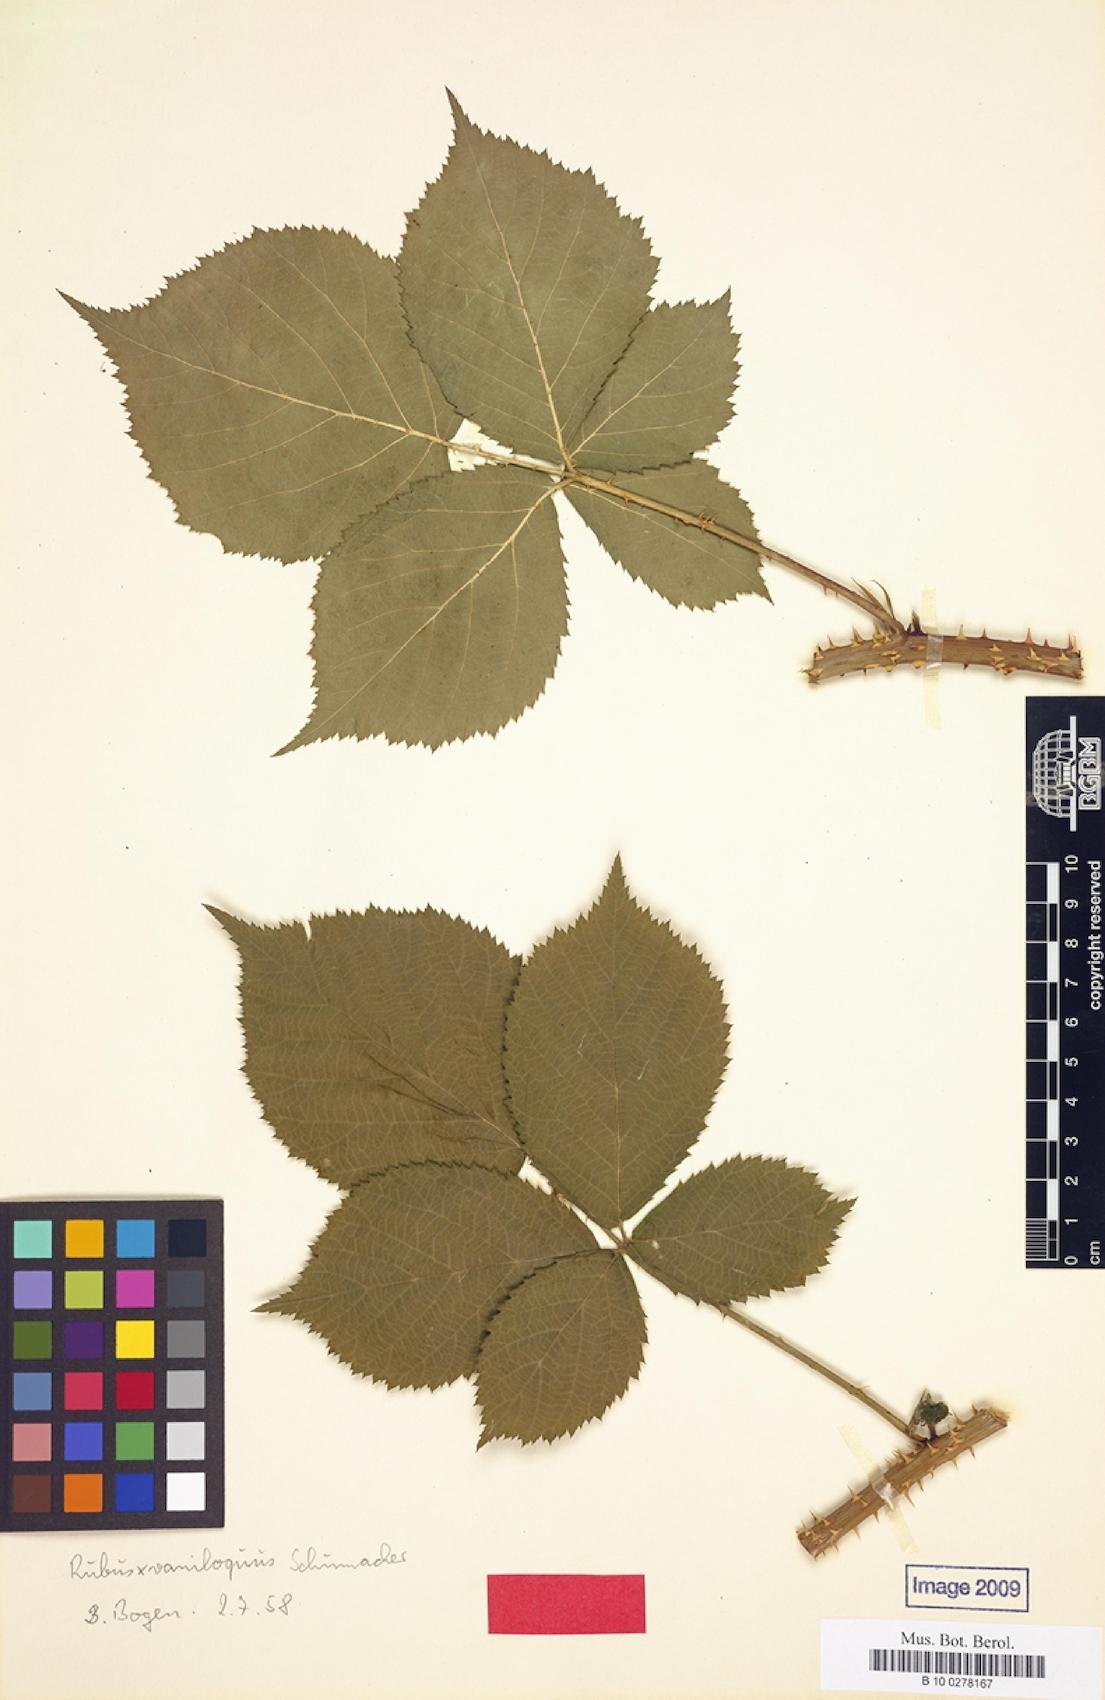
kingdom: Plantae
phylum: Tracheophyta
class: Magnoliopsida
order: Rosales
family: Rosaceae
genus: Rubus
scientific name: Rubus vaniloquus
